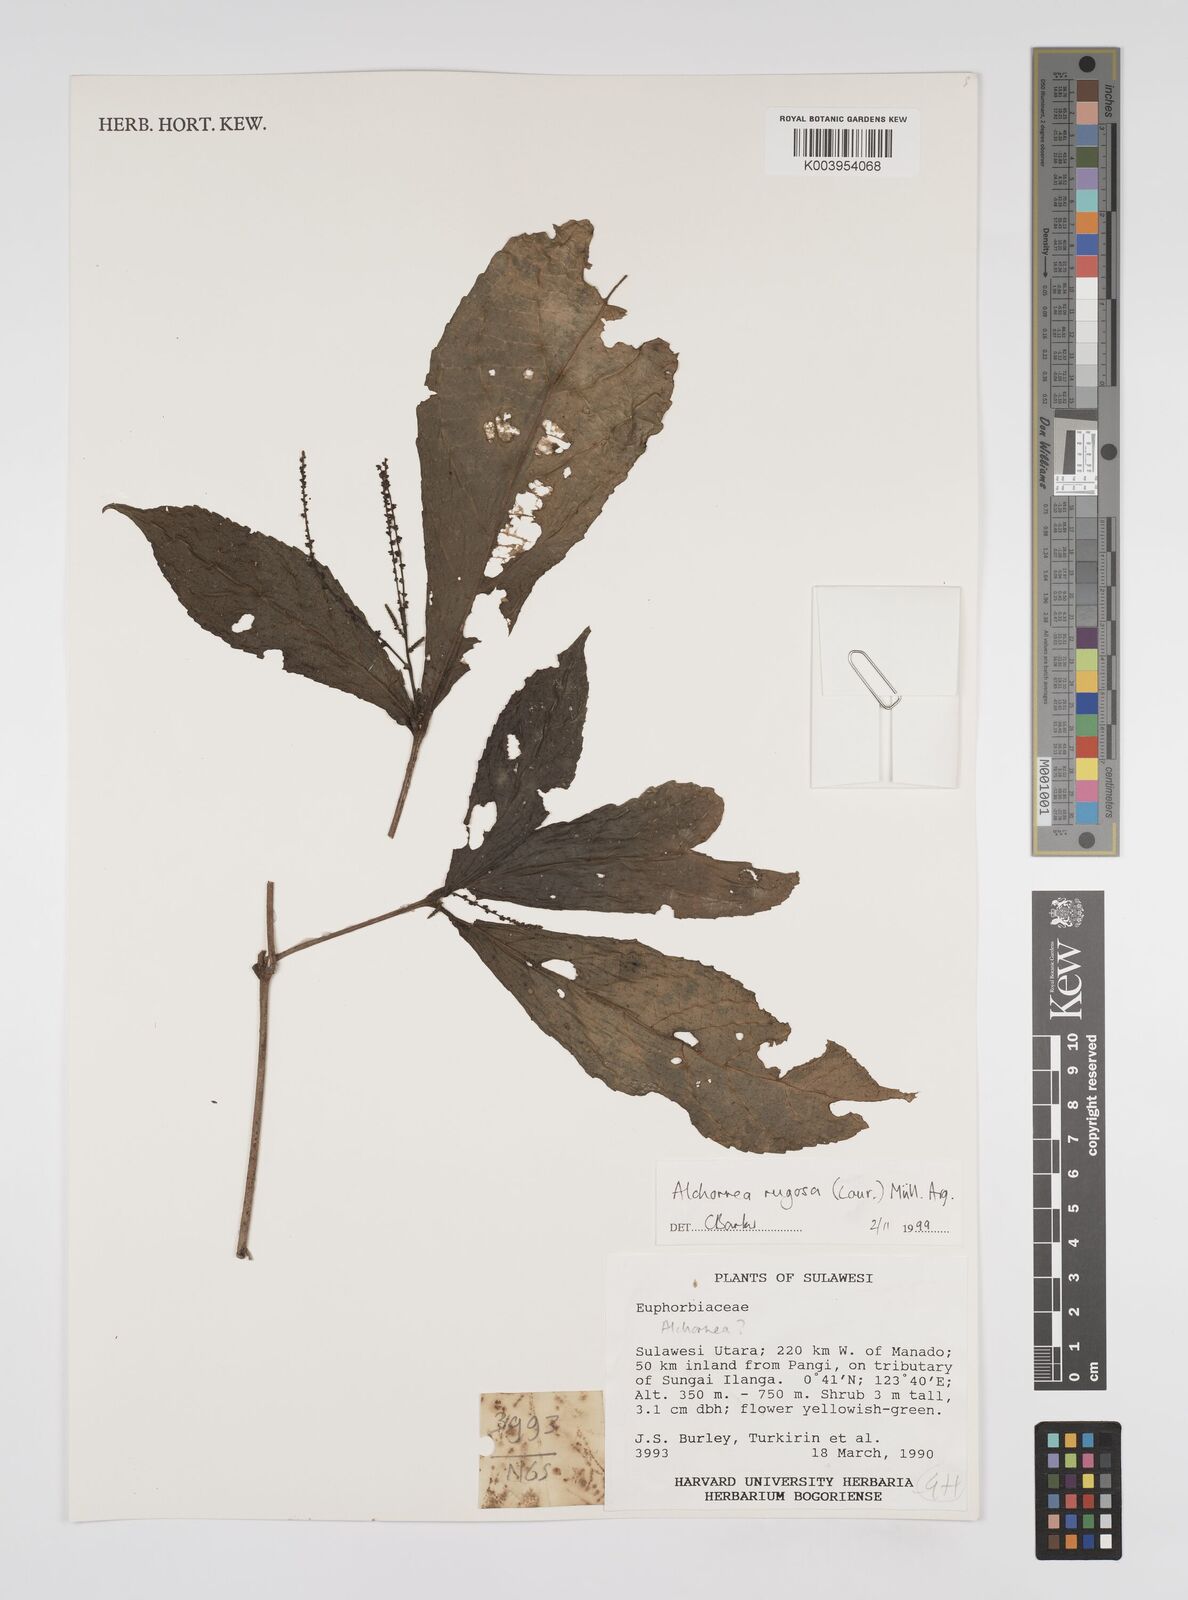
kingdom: Plantae
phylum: Tracheophyta
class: Magnoliopsida
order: Malpighiales
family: Euphorbiaceae
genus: Alchornea
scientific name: Alchornea rugosa
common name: Alchorntree
